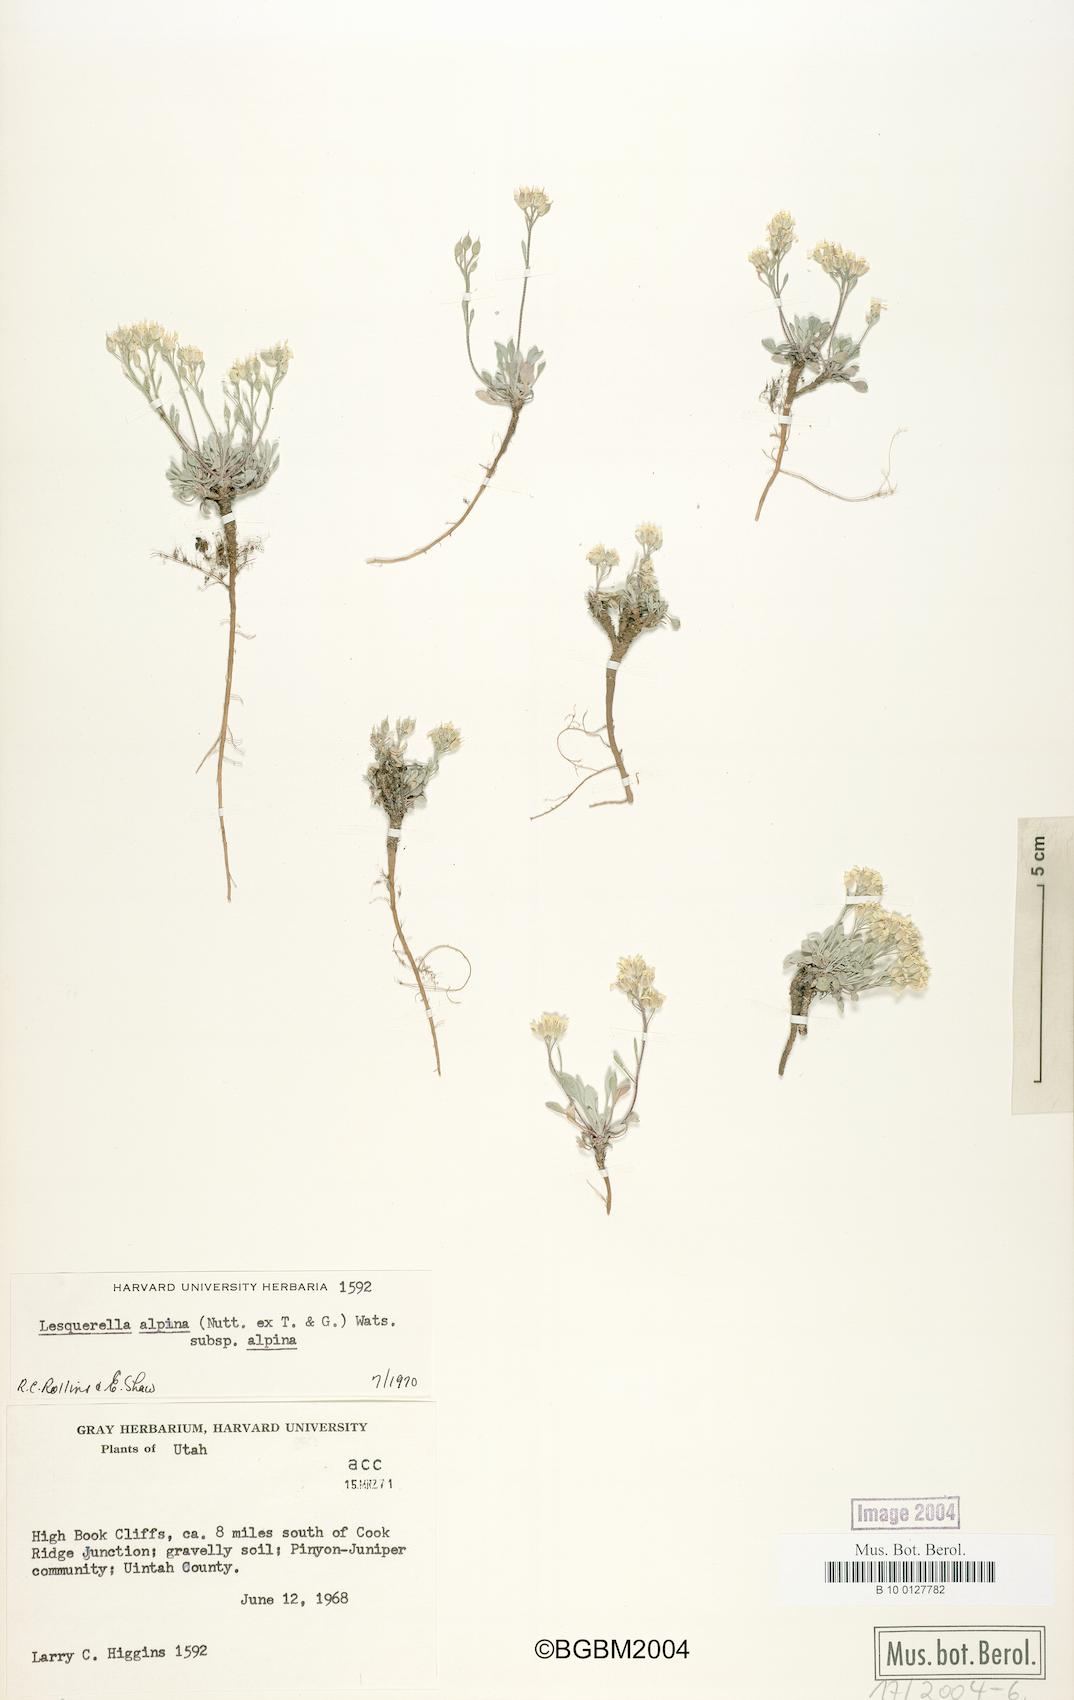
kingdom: Plantae
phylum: Tracheophyta
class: Magnoliopsida
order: Brassicales
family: Brassicaceae
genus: Physaria
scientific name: Physaria reediana
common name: Rollins's bladderpod
